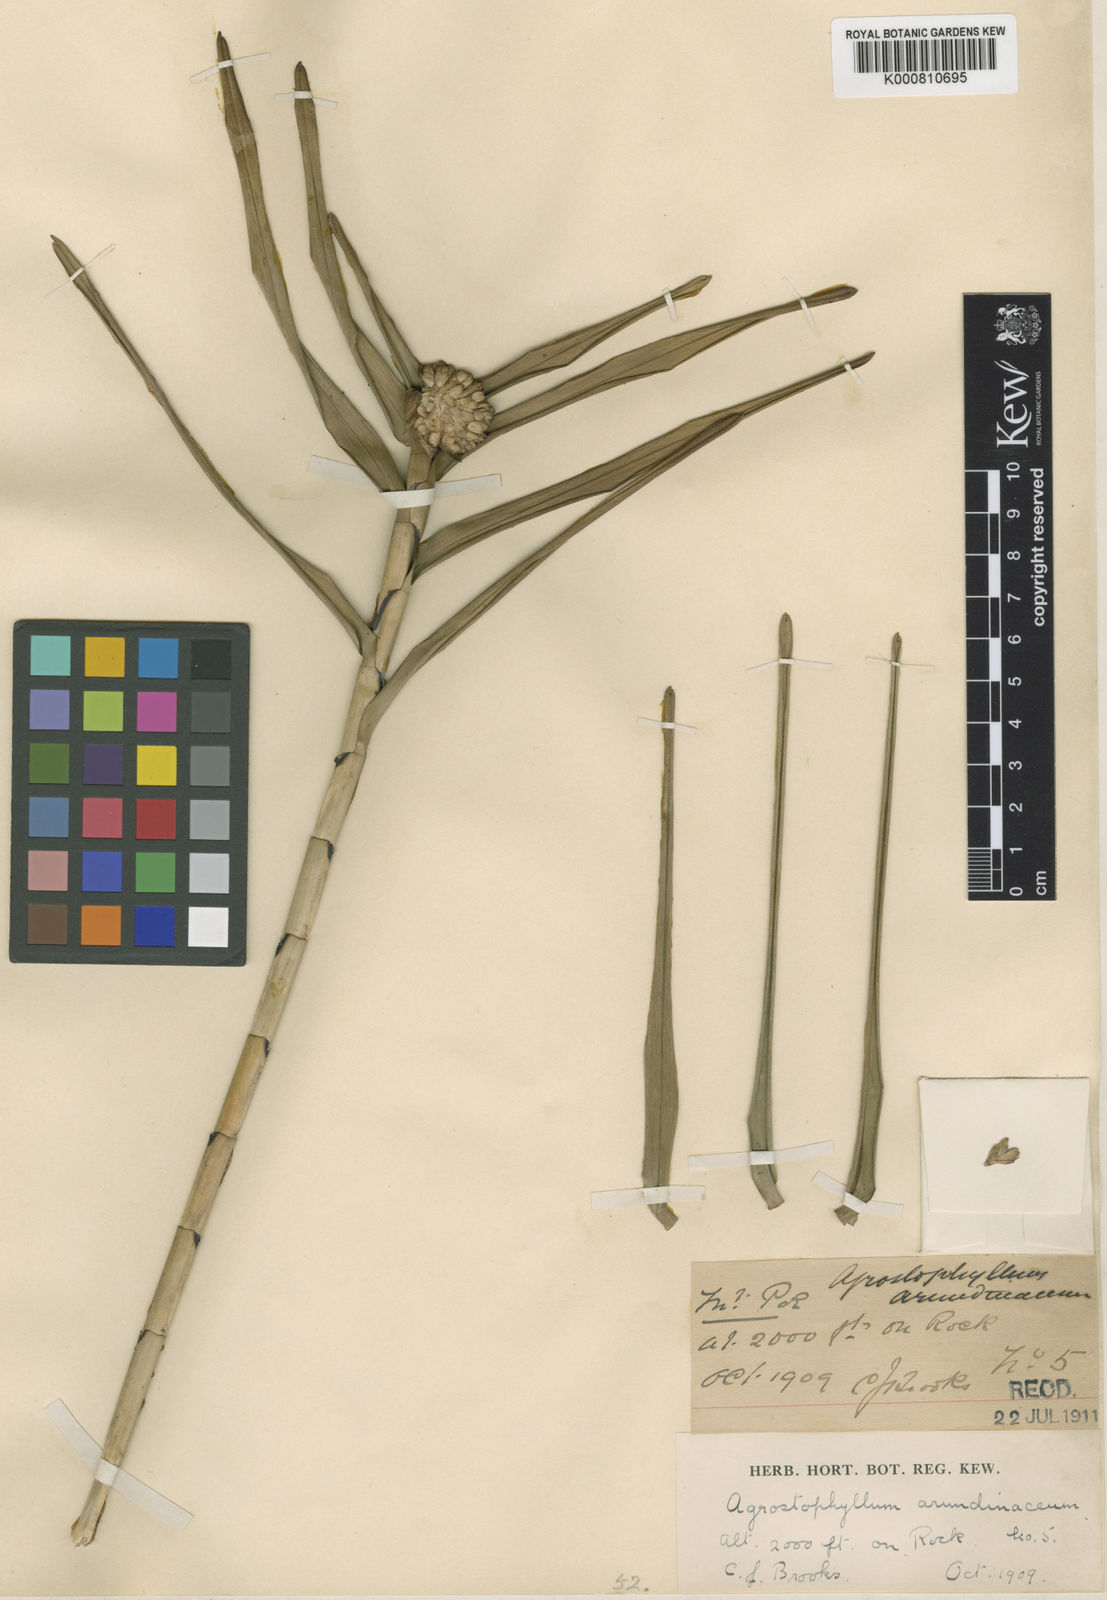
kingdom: Plantae
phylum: Tracheophyta
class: Liliopsida
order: Asparagales
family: Orchidaceae
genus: Agrostophyllum
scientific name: Agrostophyllum cyathiforme
